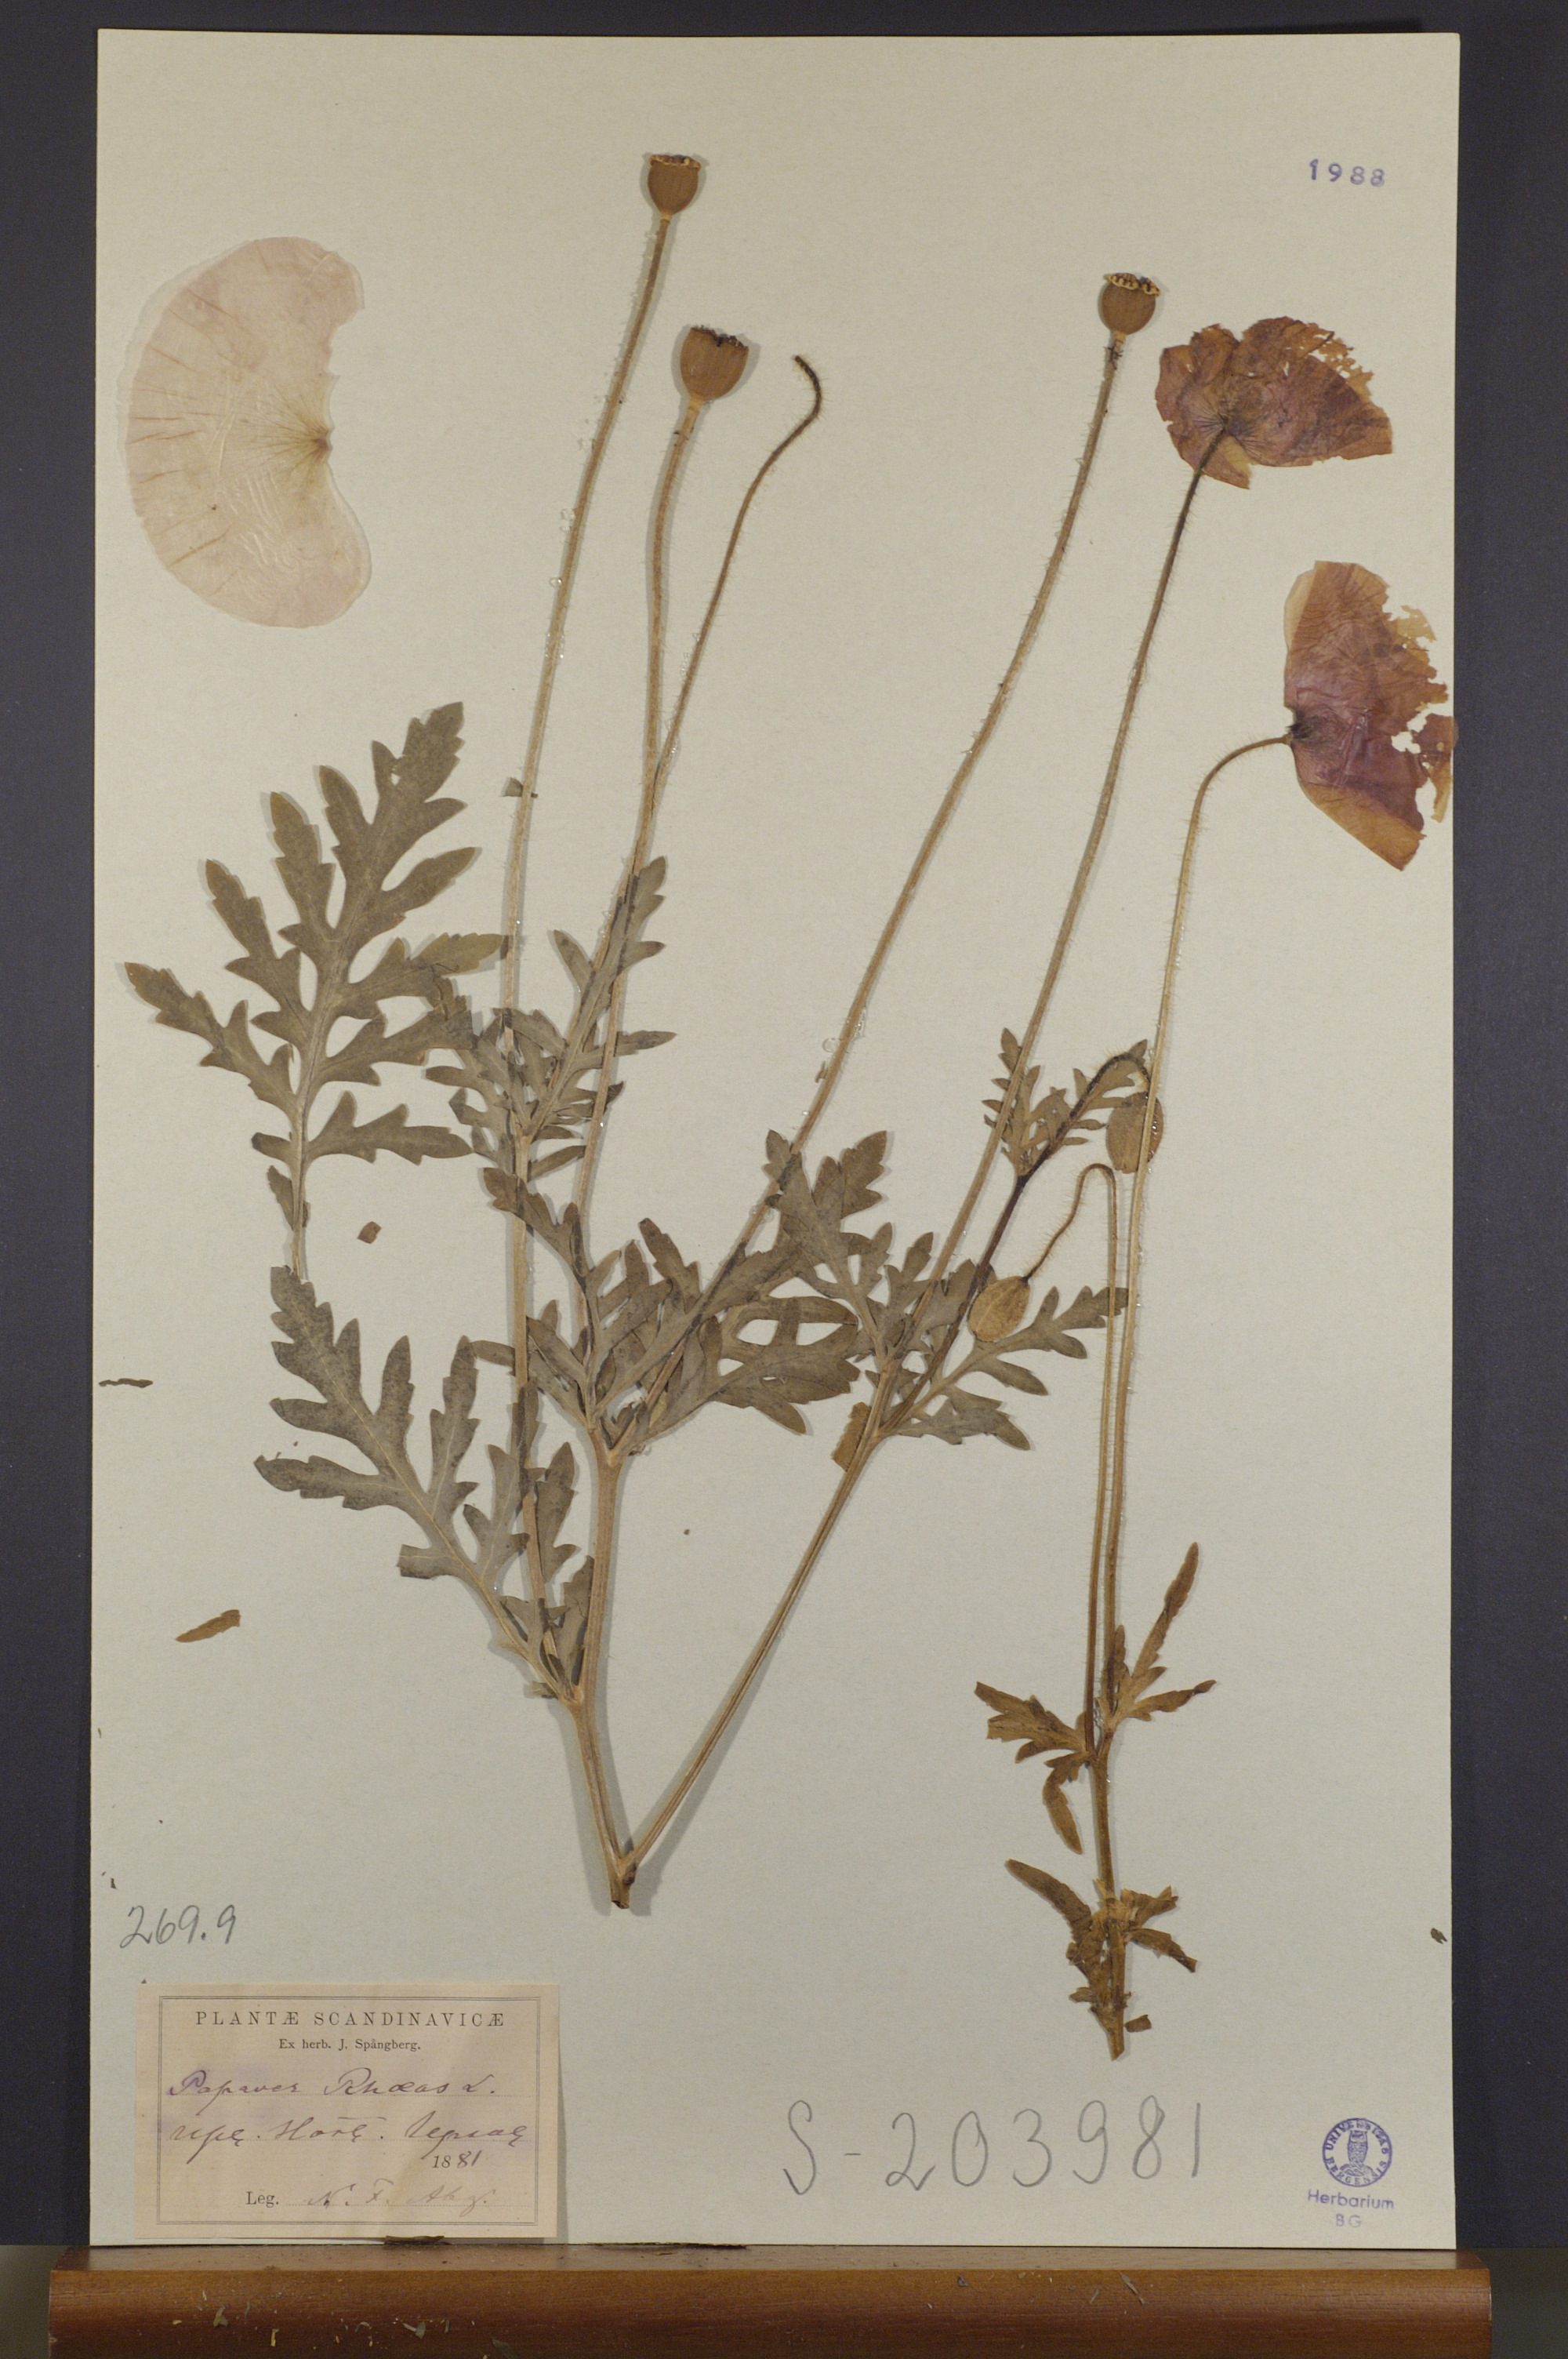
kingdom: Plantae
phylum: Tracheophyta
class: Magnoliopsida
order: Ranunculales
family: Papaveraceae
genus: Papaver
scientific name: Papaver rhoeas
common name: Corn poppy
